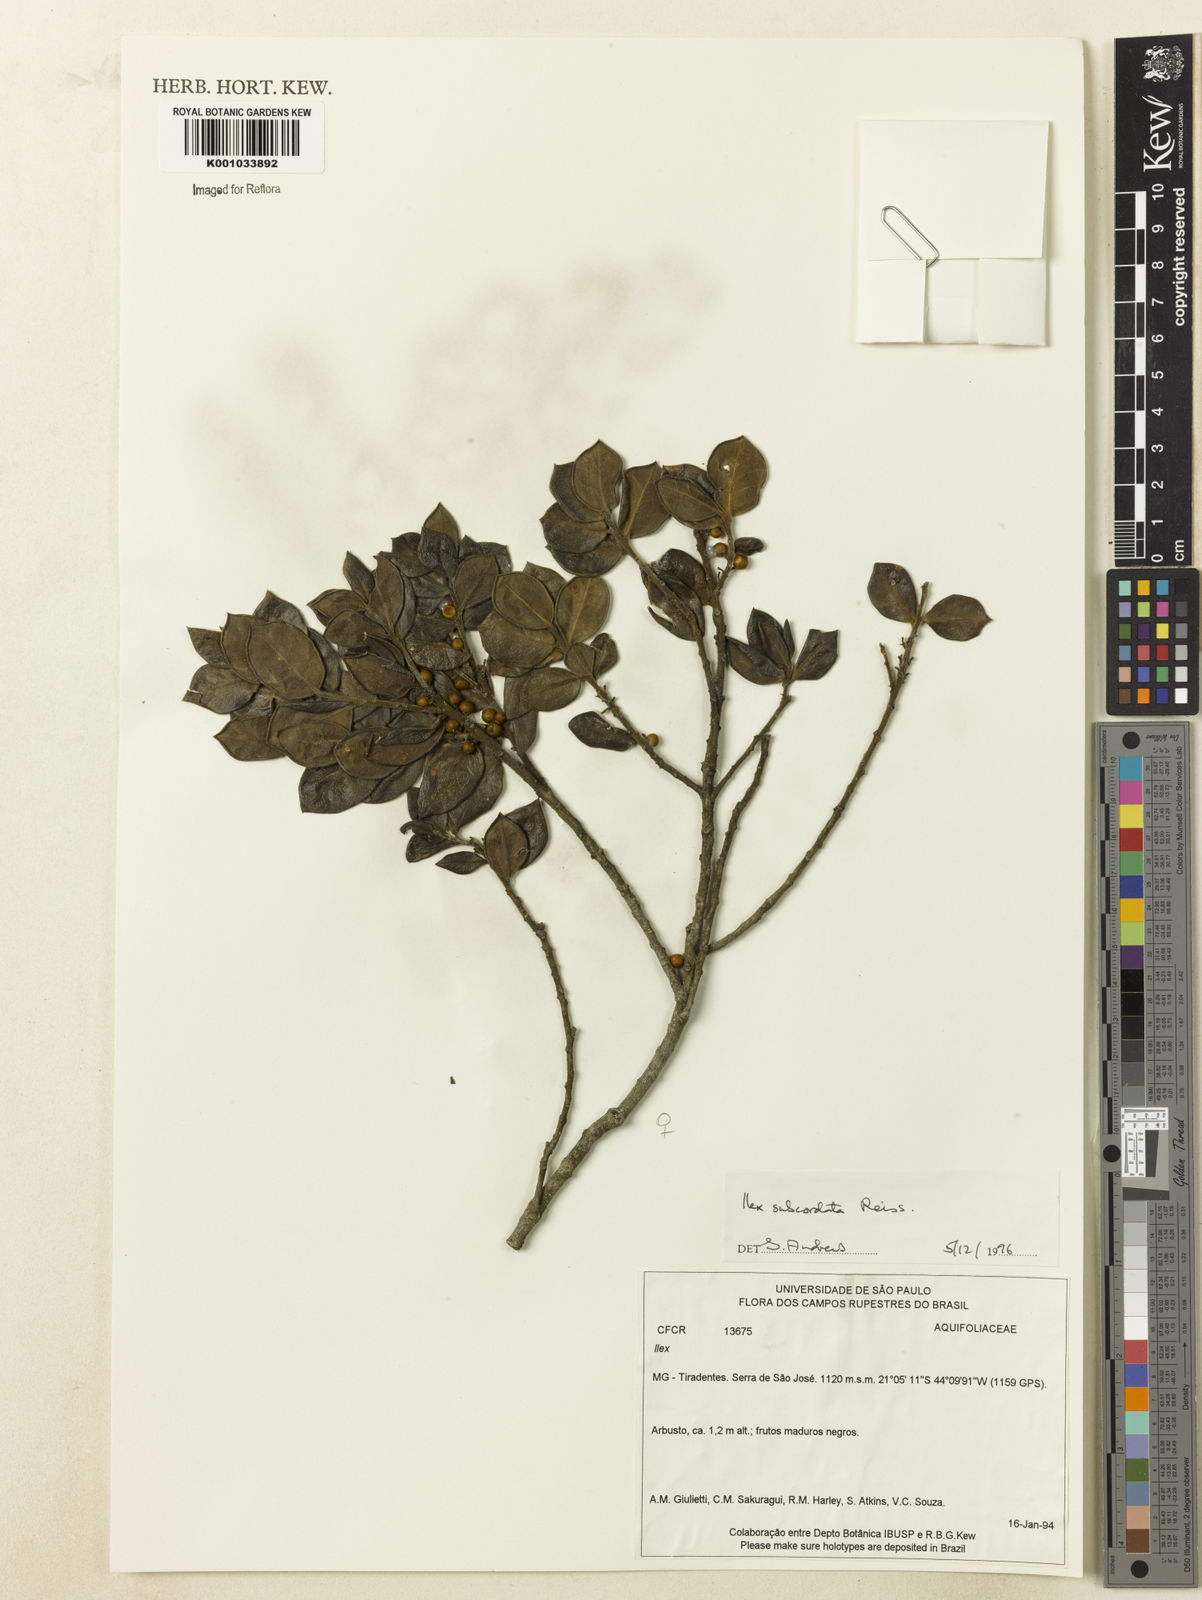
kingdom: Plantae
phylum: Tracheophyta
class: Magnoliopsida
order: Aquifoliales
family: Aquifoliaceae
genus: Ilex
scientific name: Ilex subcordata
